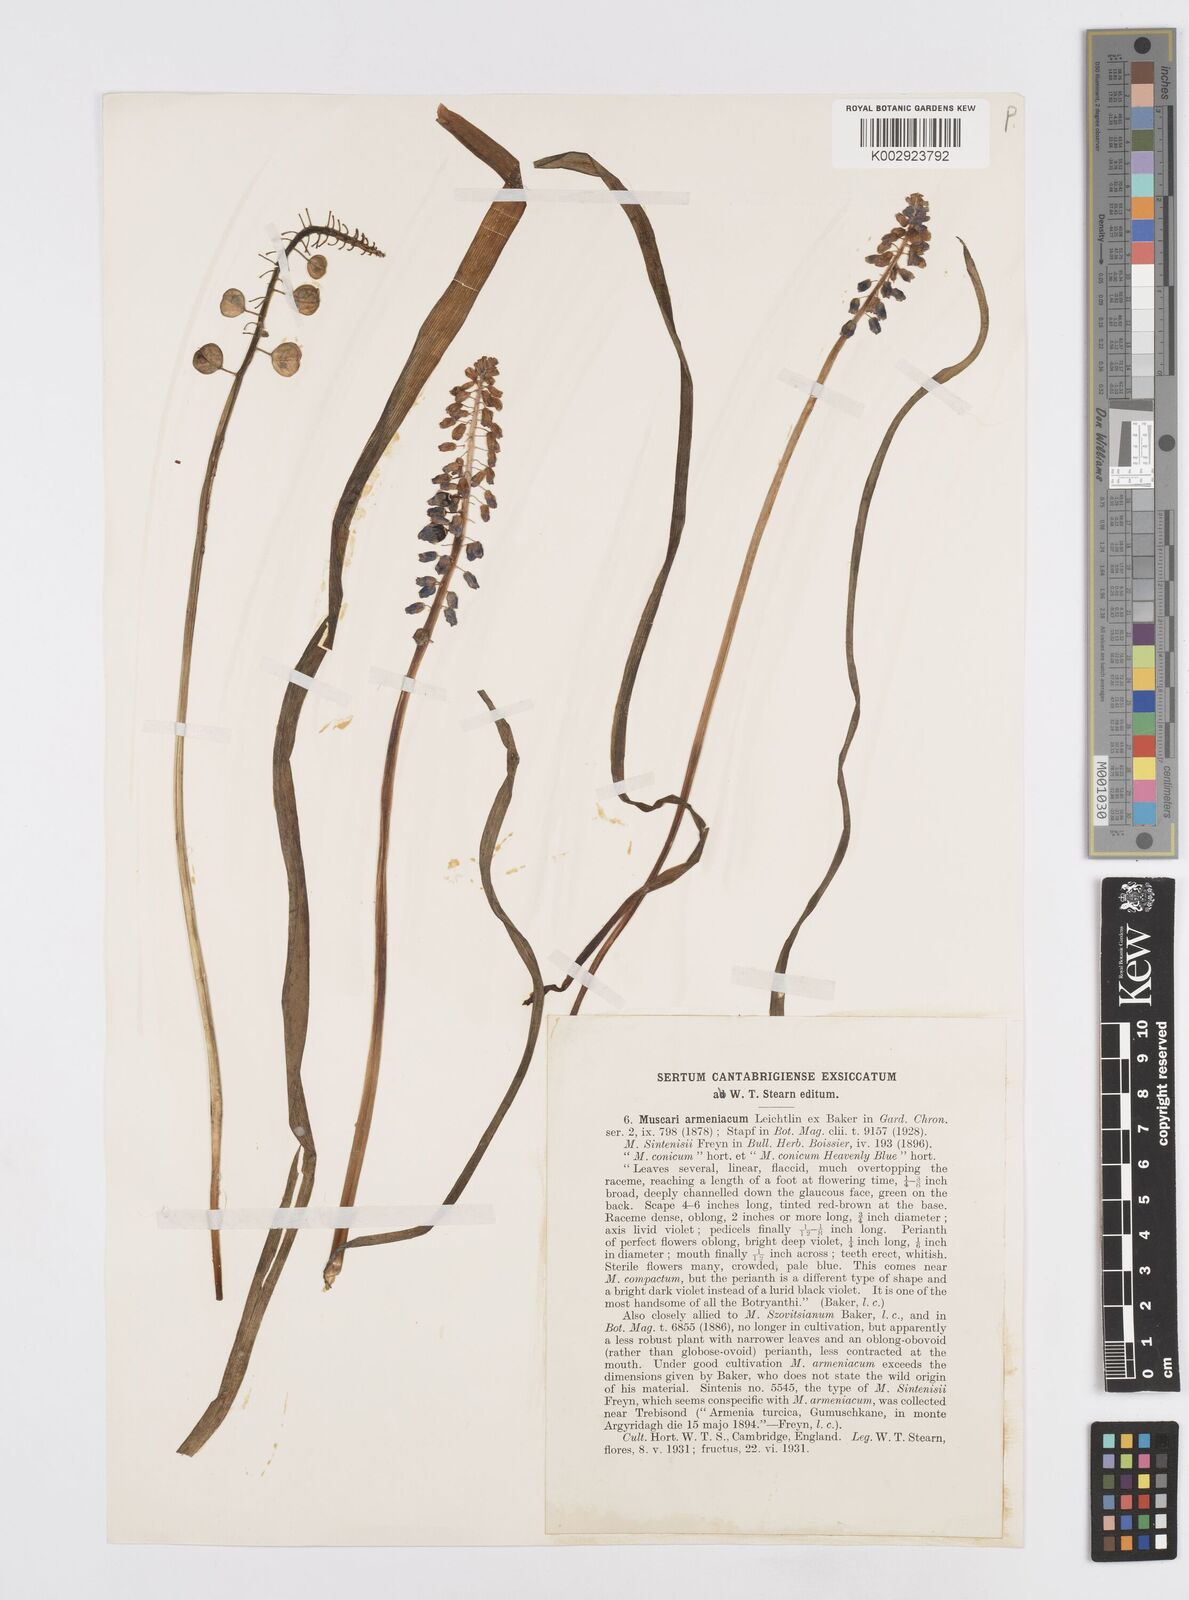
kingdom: Plantae
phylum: Tracheophyta
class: Liliopsida
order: Asparagales
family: Asparagaceae
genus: Muscari
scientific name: Muscari
